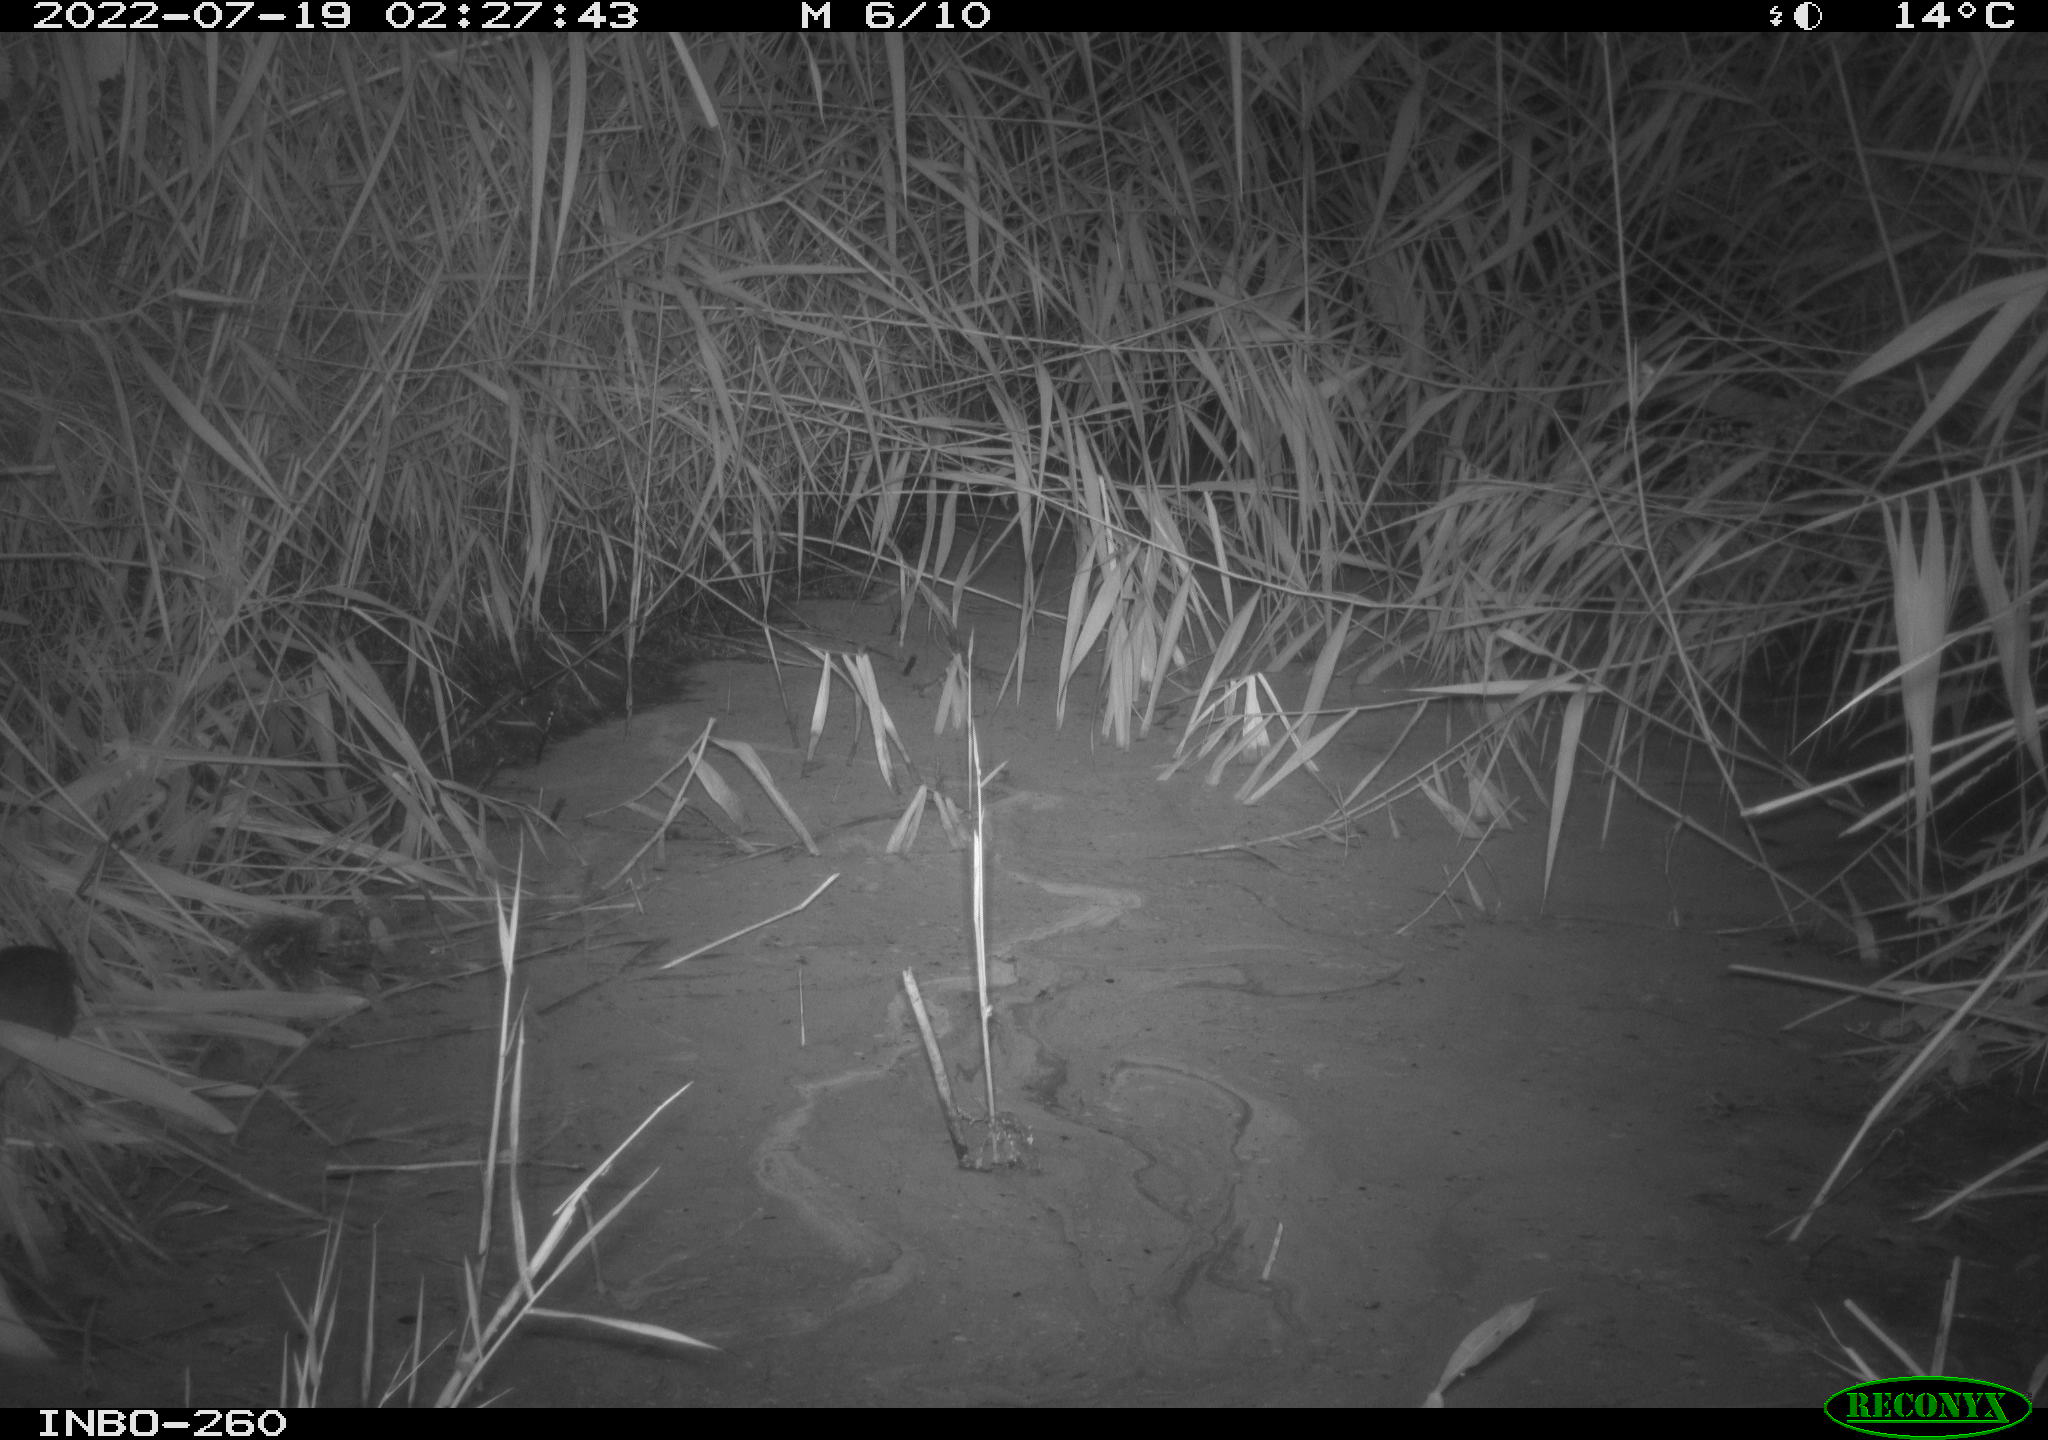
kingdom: Animalia
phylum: Chordata
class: Mammalia
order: Rodentia
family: Muridae
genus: Rattus
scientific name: Rattus norvegicus
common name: Brown rat
